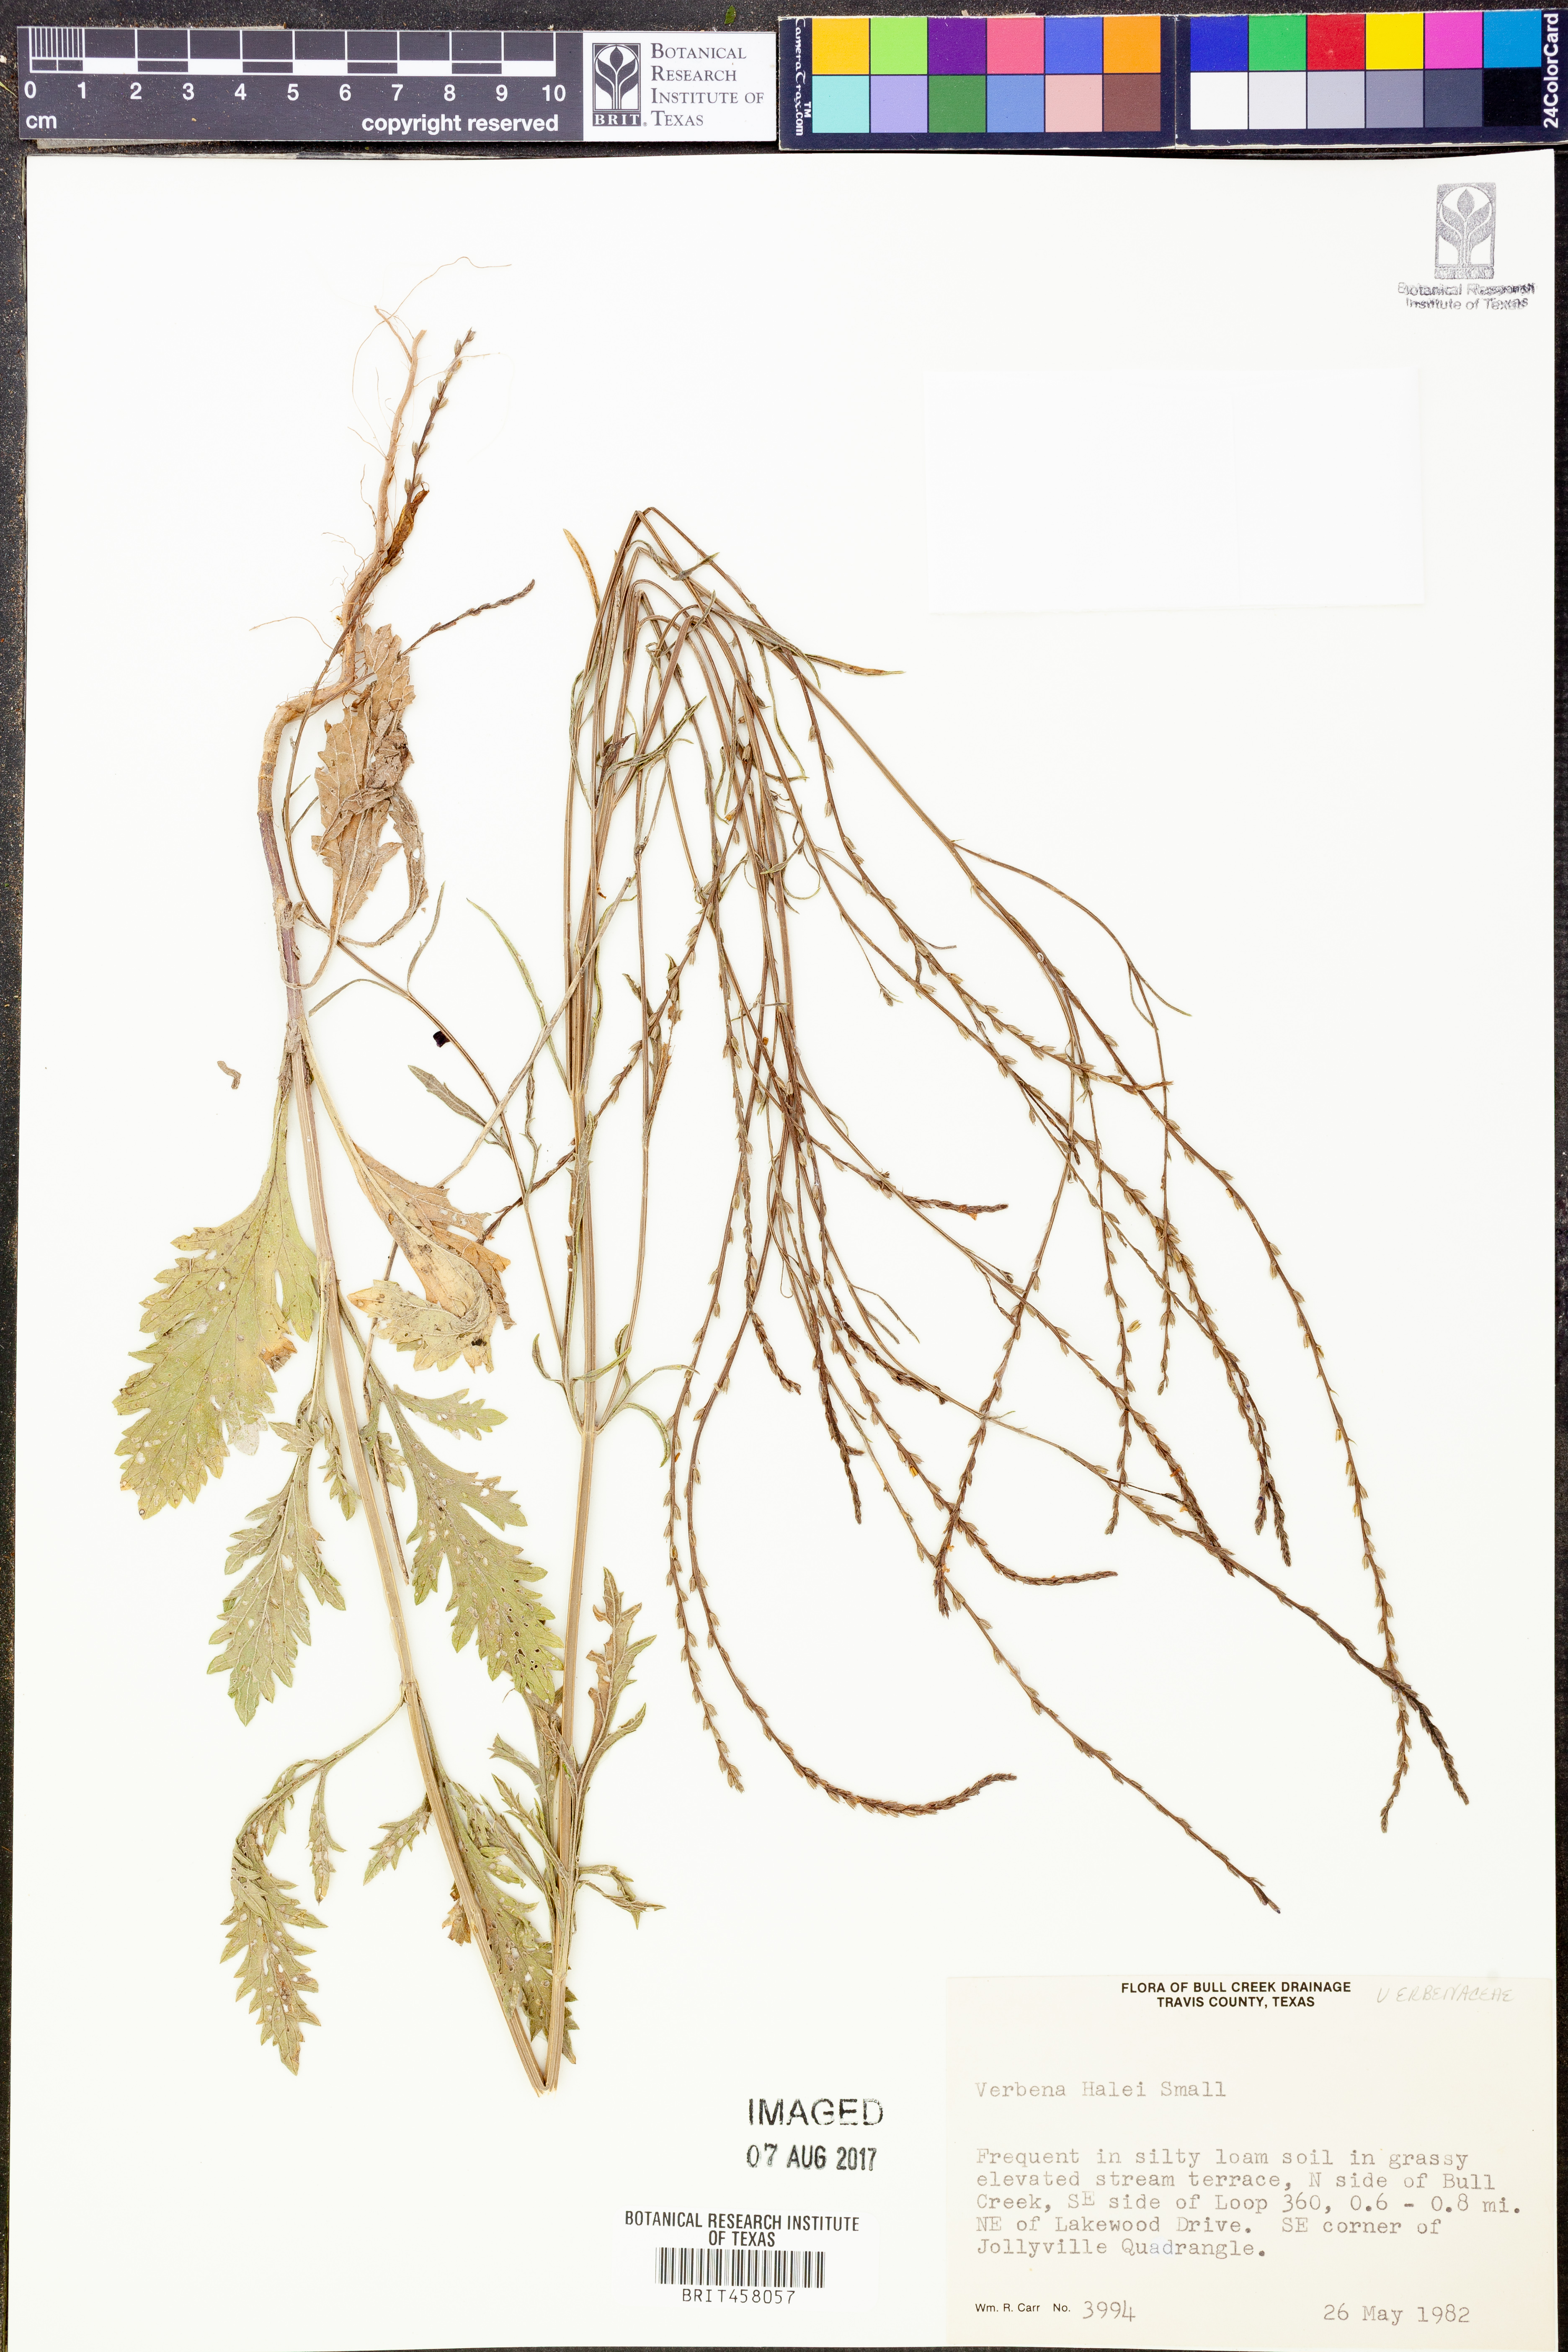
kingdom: Plantae
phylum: Tracheophyta
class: Magnoliopsida
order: Lamiales
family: Verbenaceae
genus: Verbena
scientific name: Verbena halei
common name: Texas vervain
